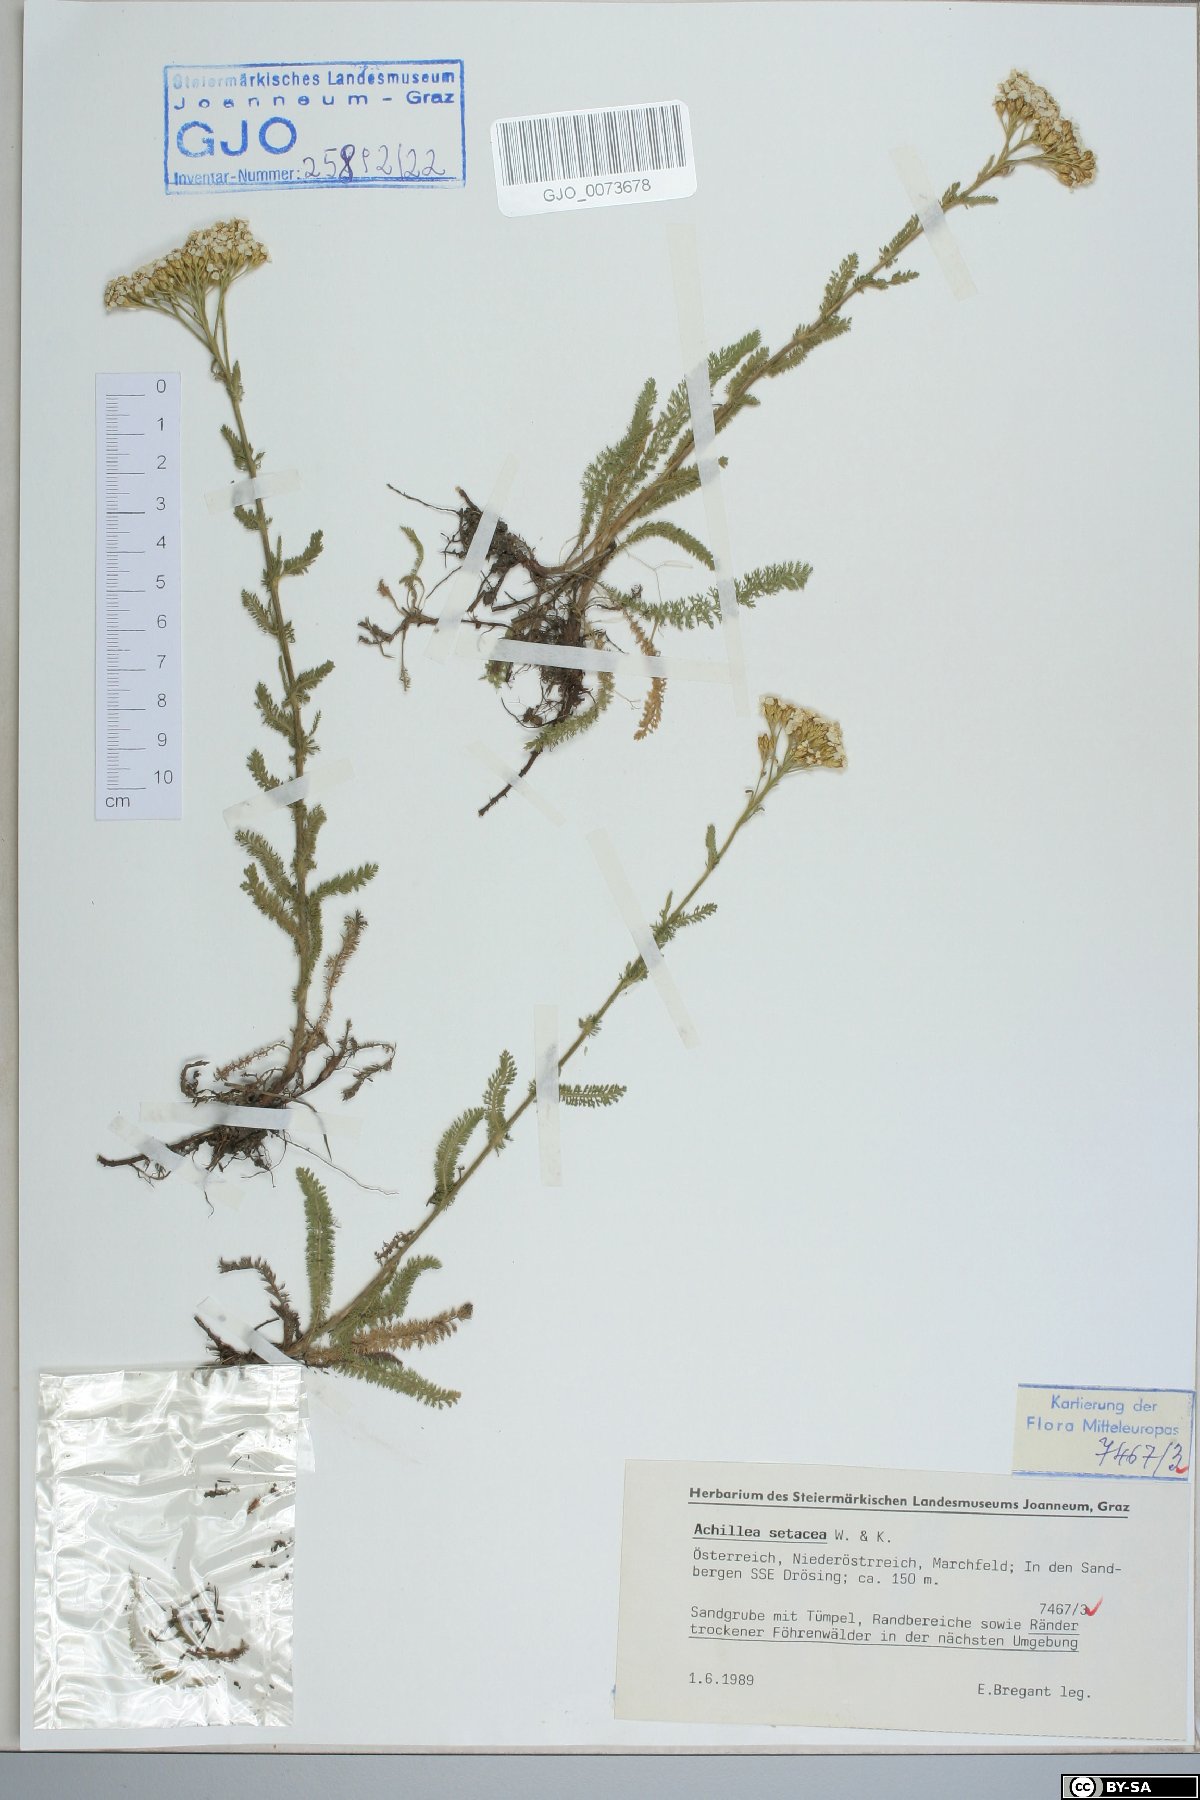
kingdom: Plantae
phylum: Tracheophyta
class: Magnoliopsida
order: Asterales
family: Asteraceae
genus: Achillea
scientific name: Achillea setacea
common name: Bristly yarrow
